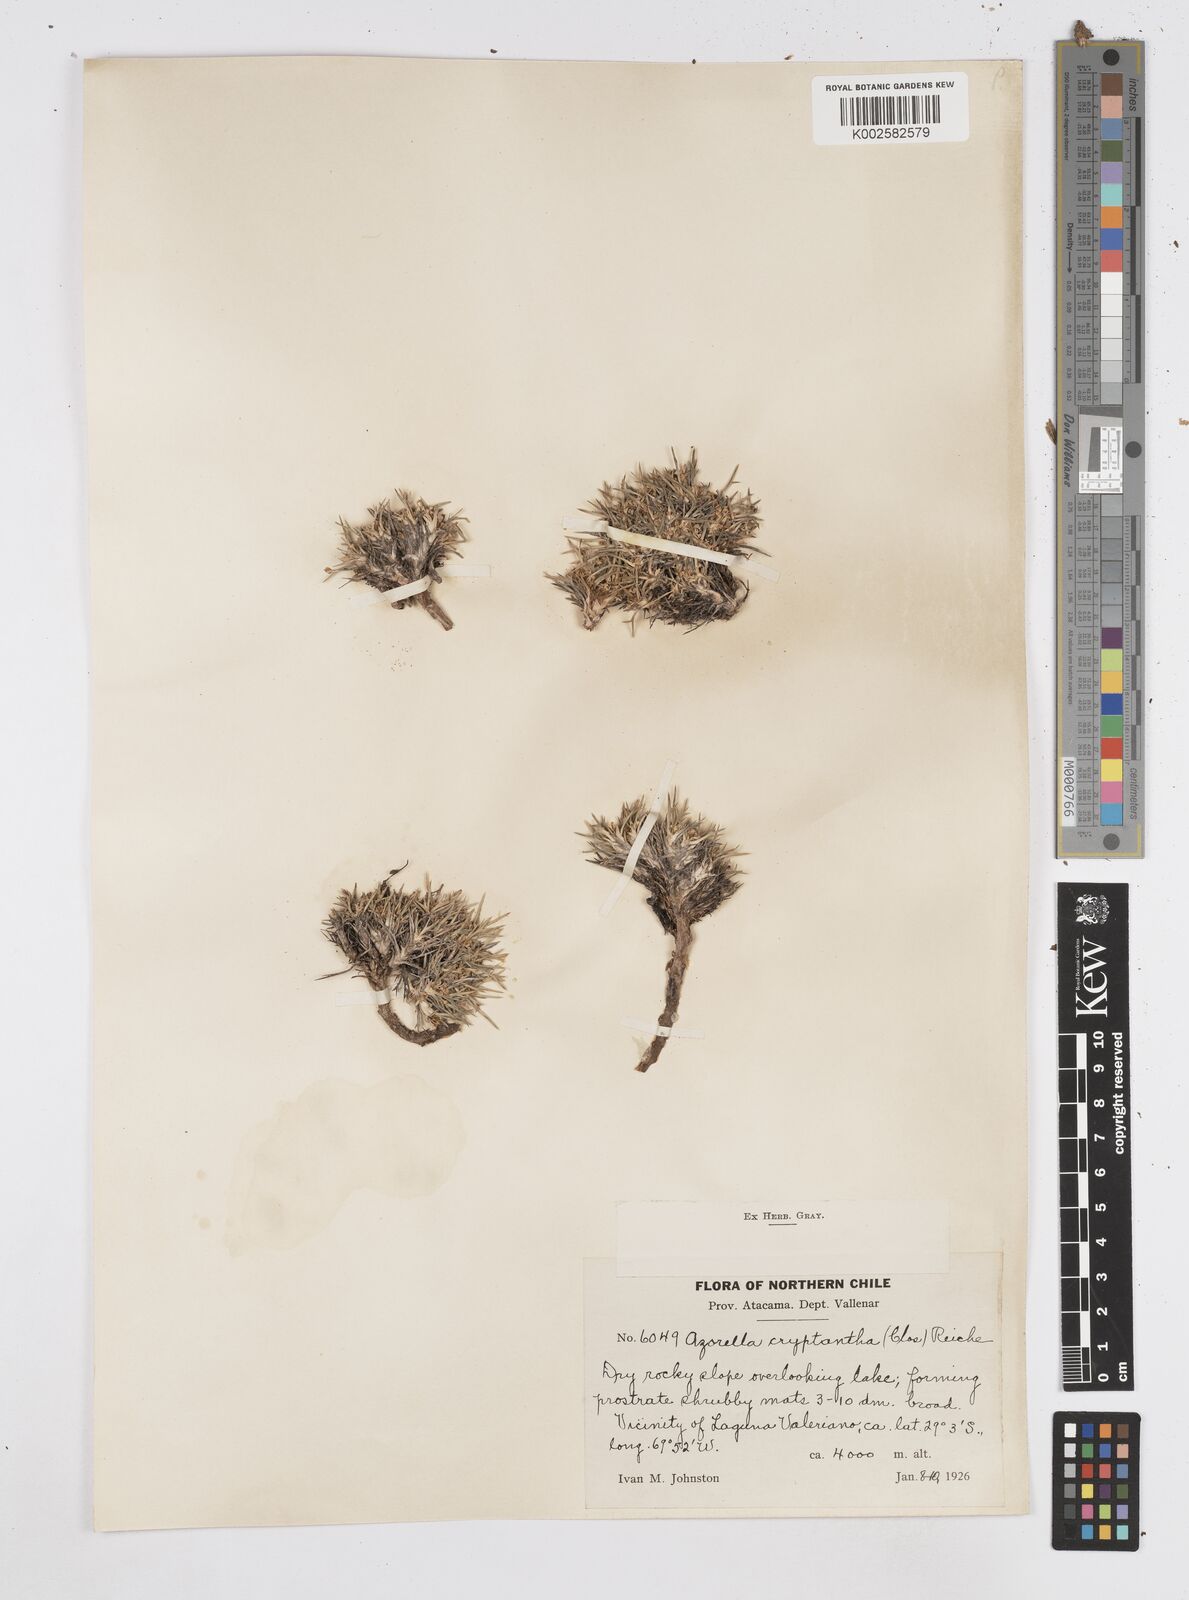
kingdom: Plantae
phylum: Tracheophyta
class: Magnoliopsida
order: Apiales
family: Apiaceae
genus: Azorella
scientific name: Azorella cryptantha
